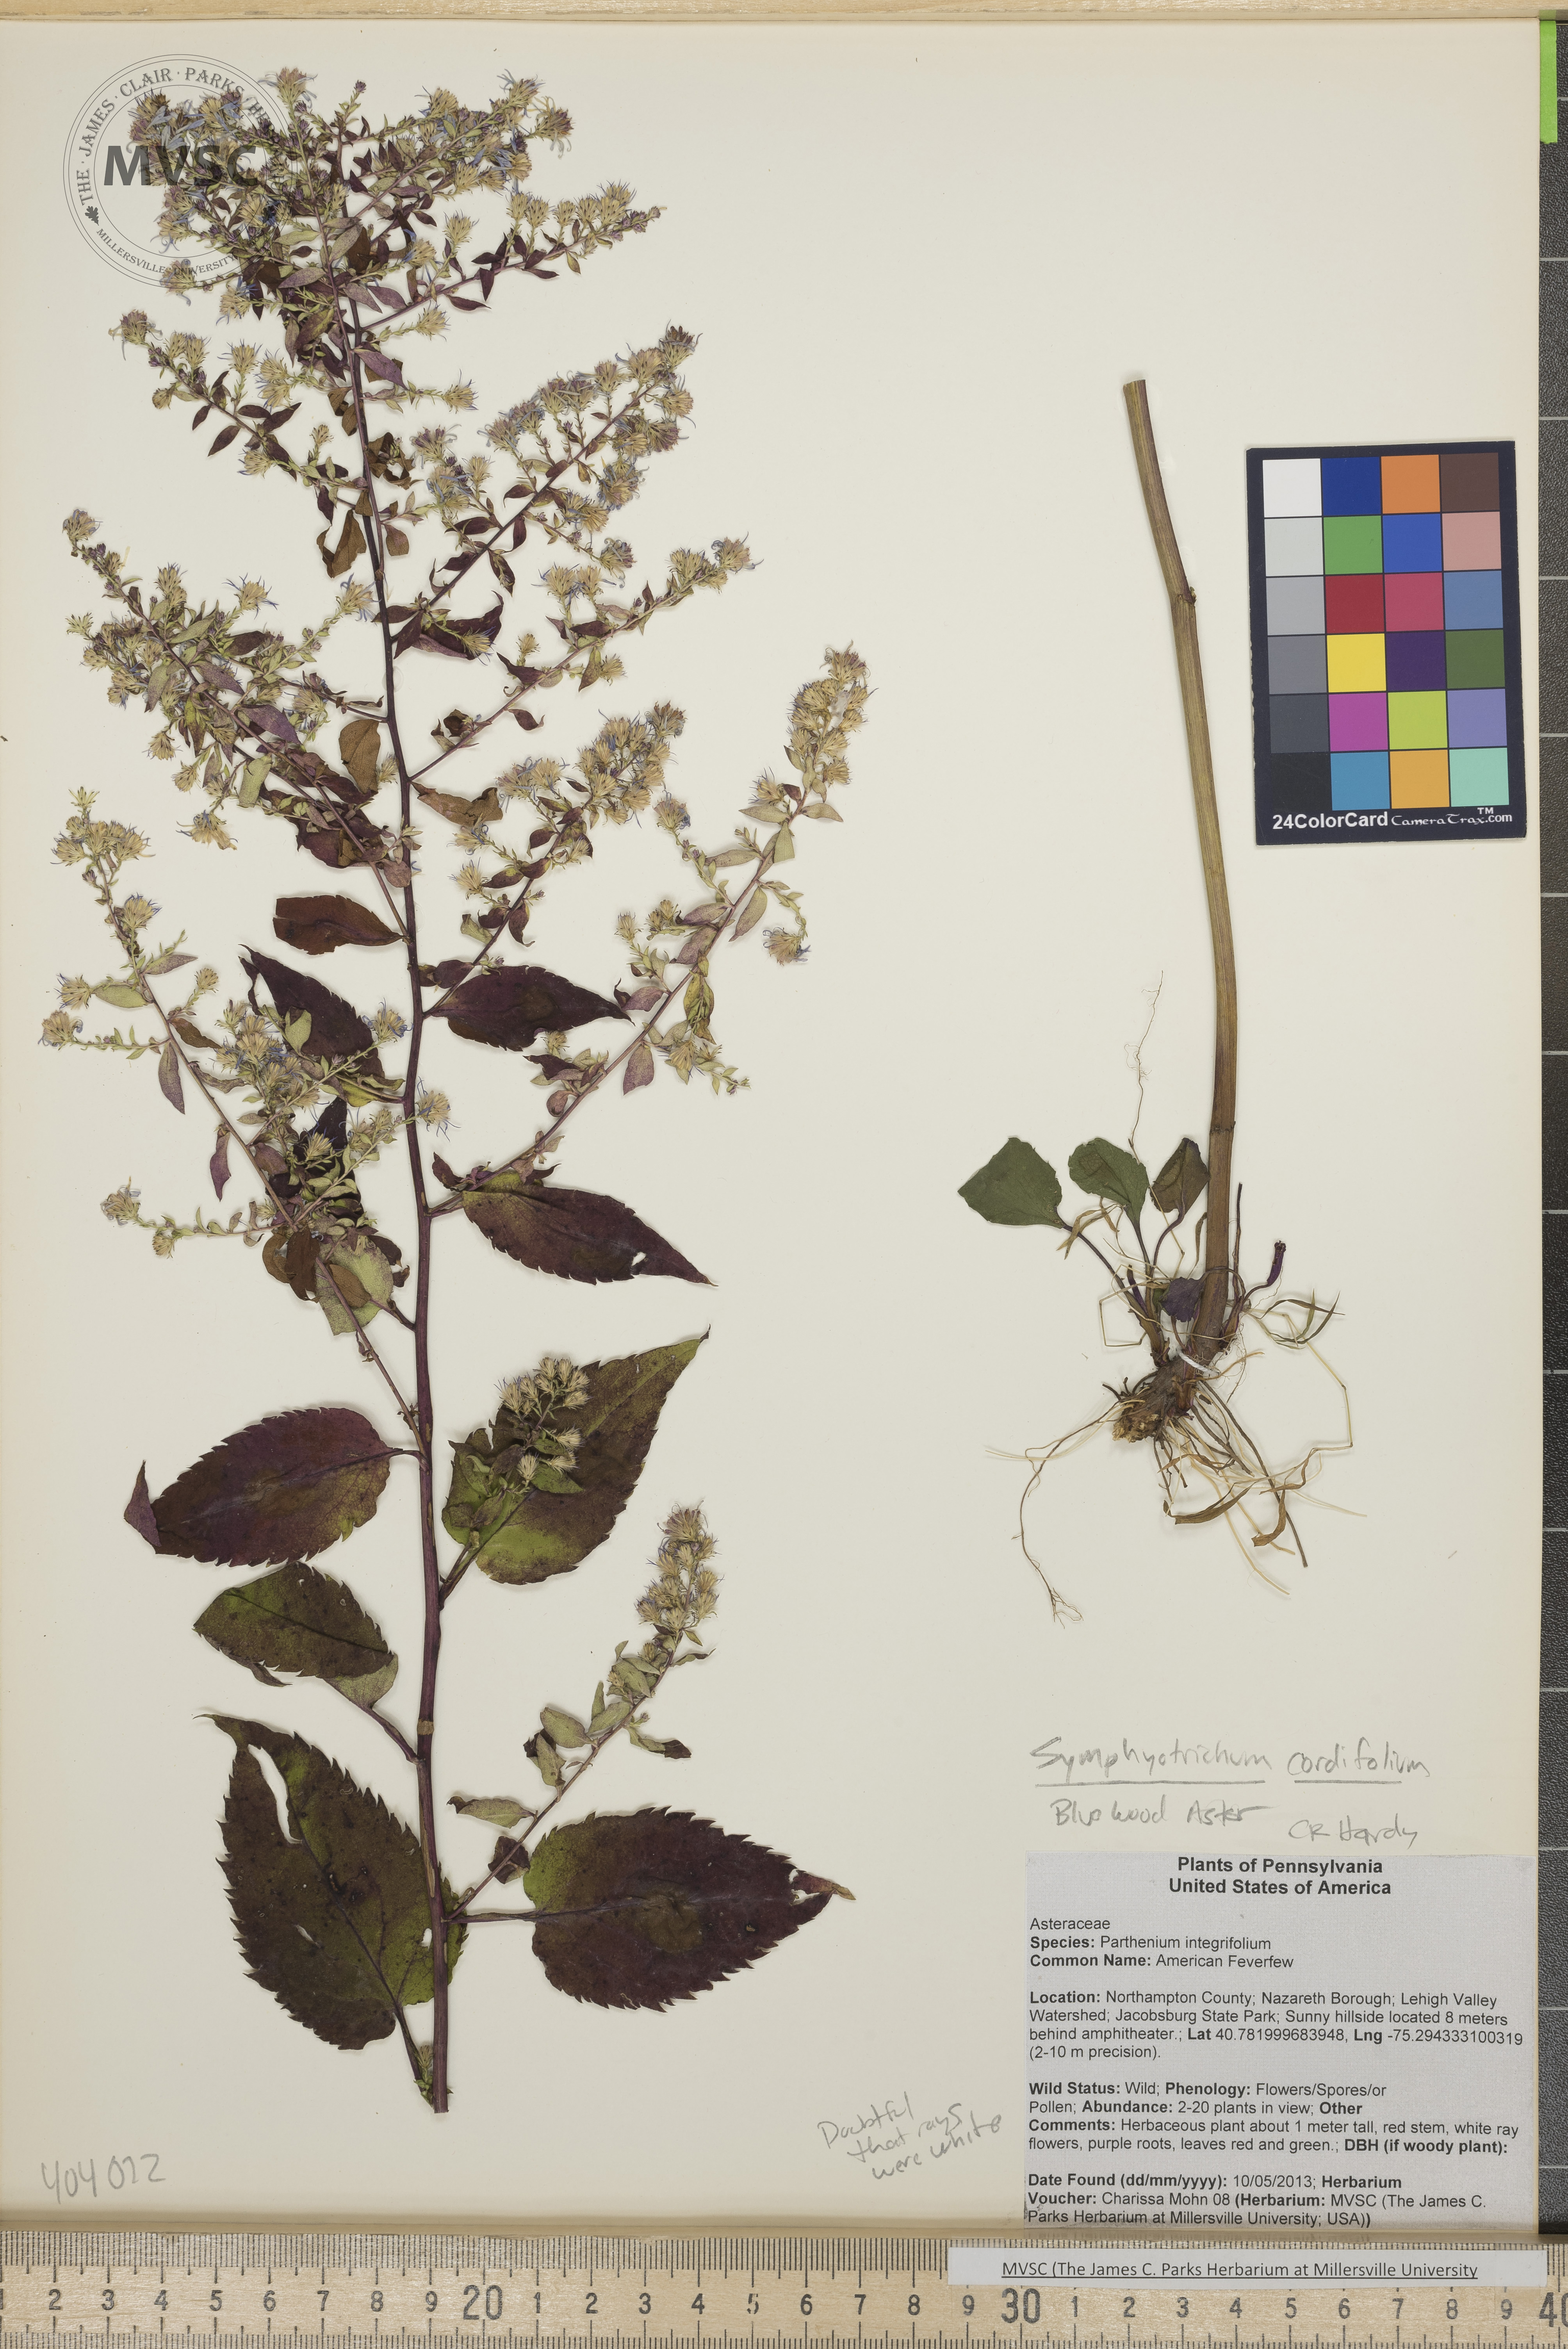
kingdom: Plantae
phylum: Tracheophyta
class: Magnoliopsida
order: Asterales
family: Asteraceae
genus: Symphyotrichum
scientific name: Symphyotrichum cordifolium
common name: Blue wood aster
